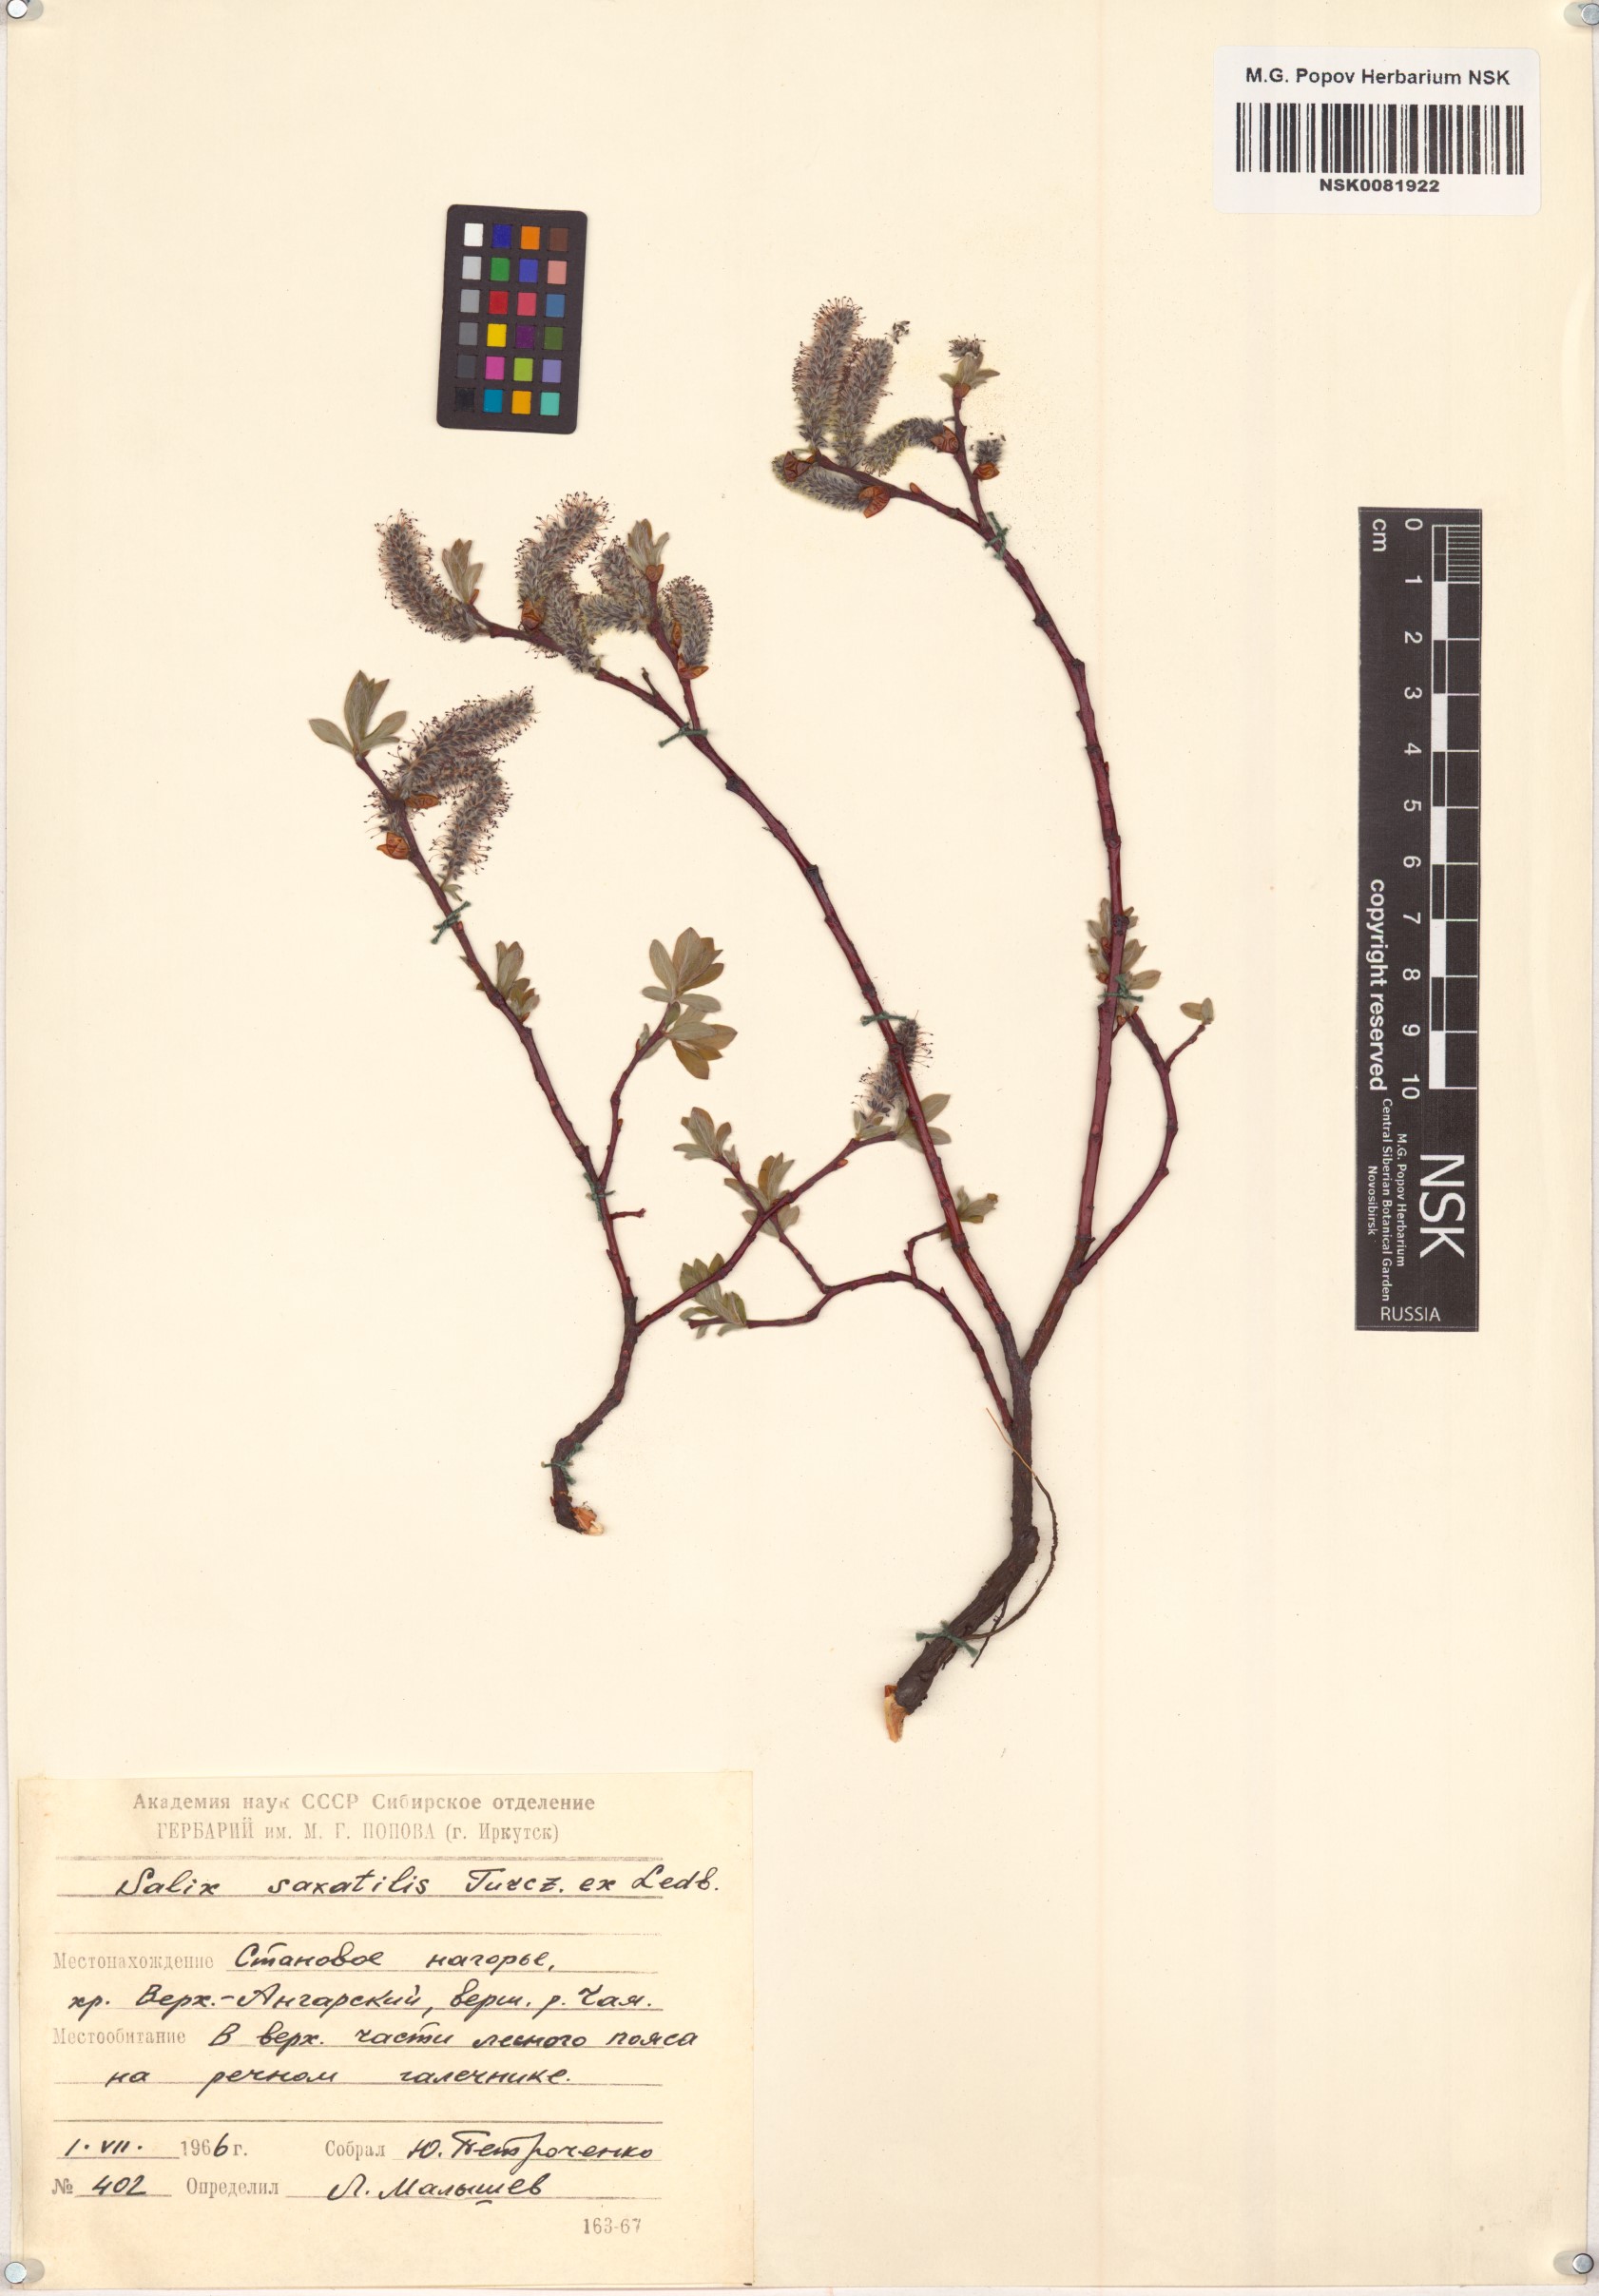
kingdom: Plantae
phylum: Tracheophyta
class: Magnoliopsida
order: Malpighiales
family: Salicaceae
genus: Salix
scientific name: Salix saxatilis
